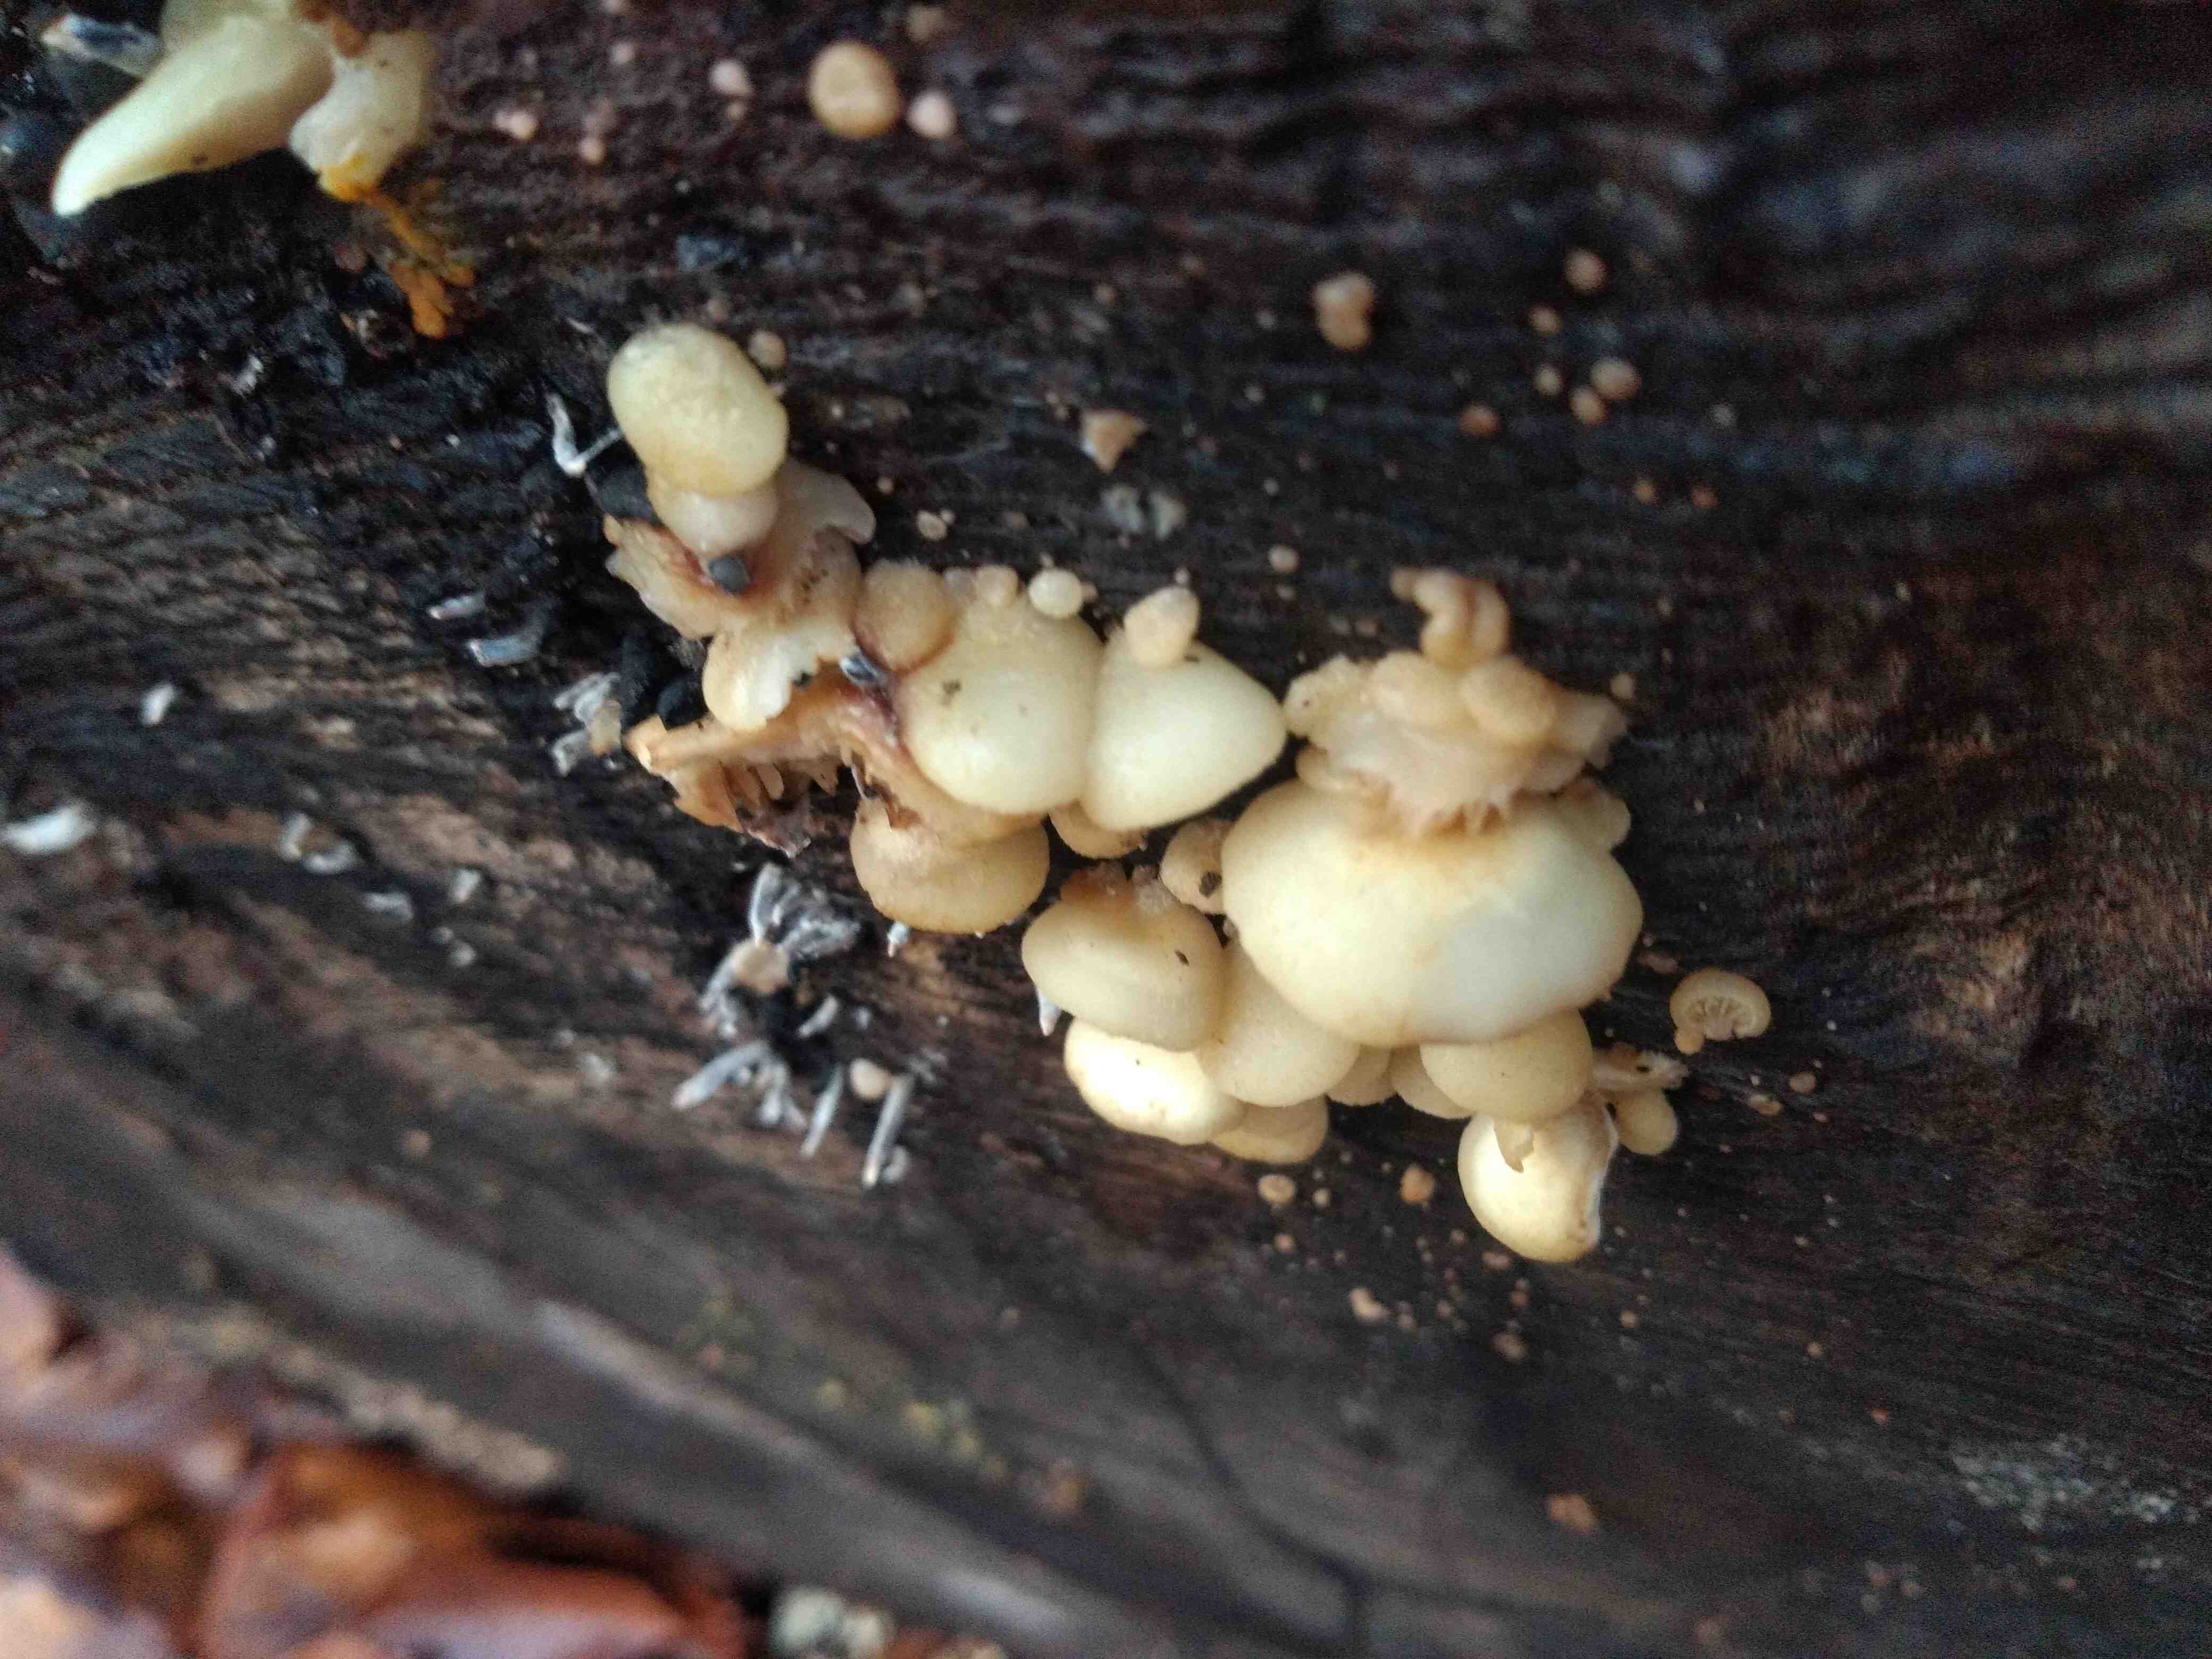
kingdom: Fungi
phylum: Basidiomycota
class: Agaricomycetes
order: Agaricales
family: Crepidotaceae
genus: Crepidotus
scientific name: Crepidotus
